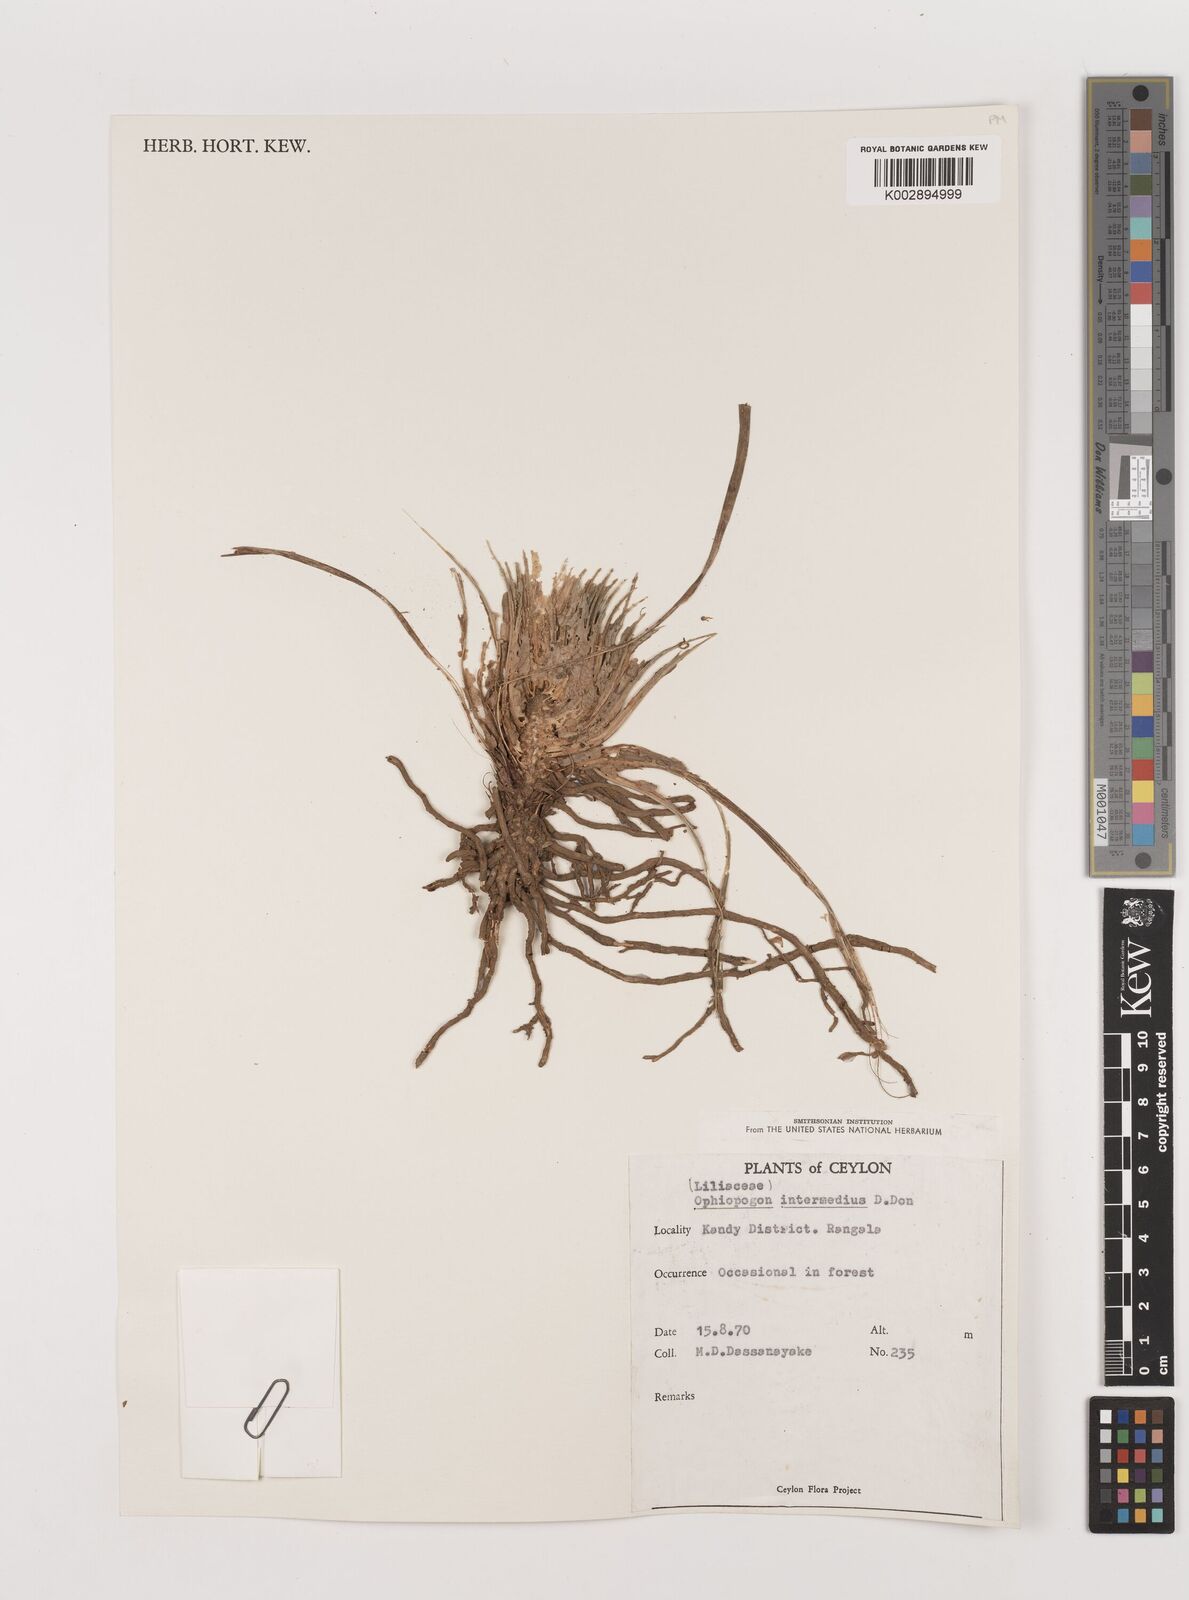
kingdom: Plantae
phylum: Tracheophyta
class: Liliopsida
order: Asparagales
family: Asparagaceae
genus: Ophiopogon
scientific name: Ophiopogon intermedius
